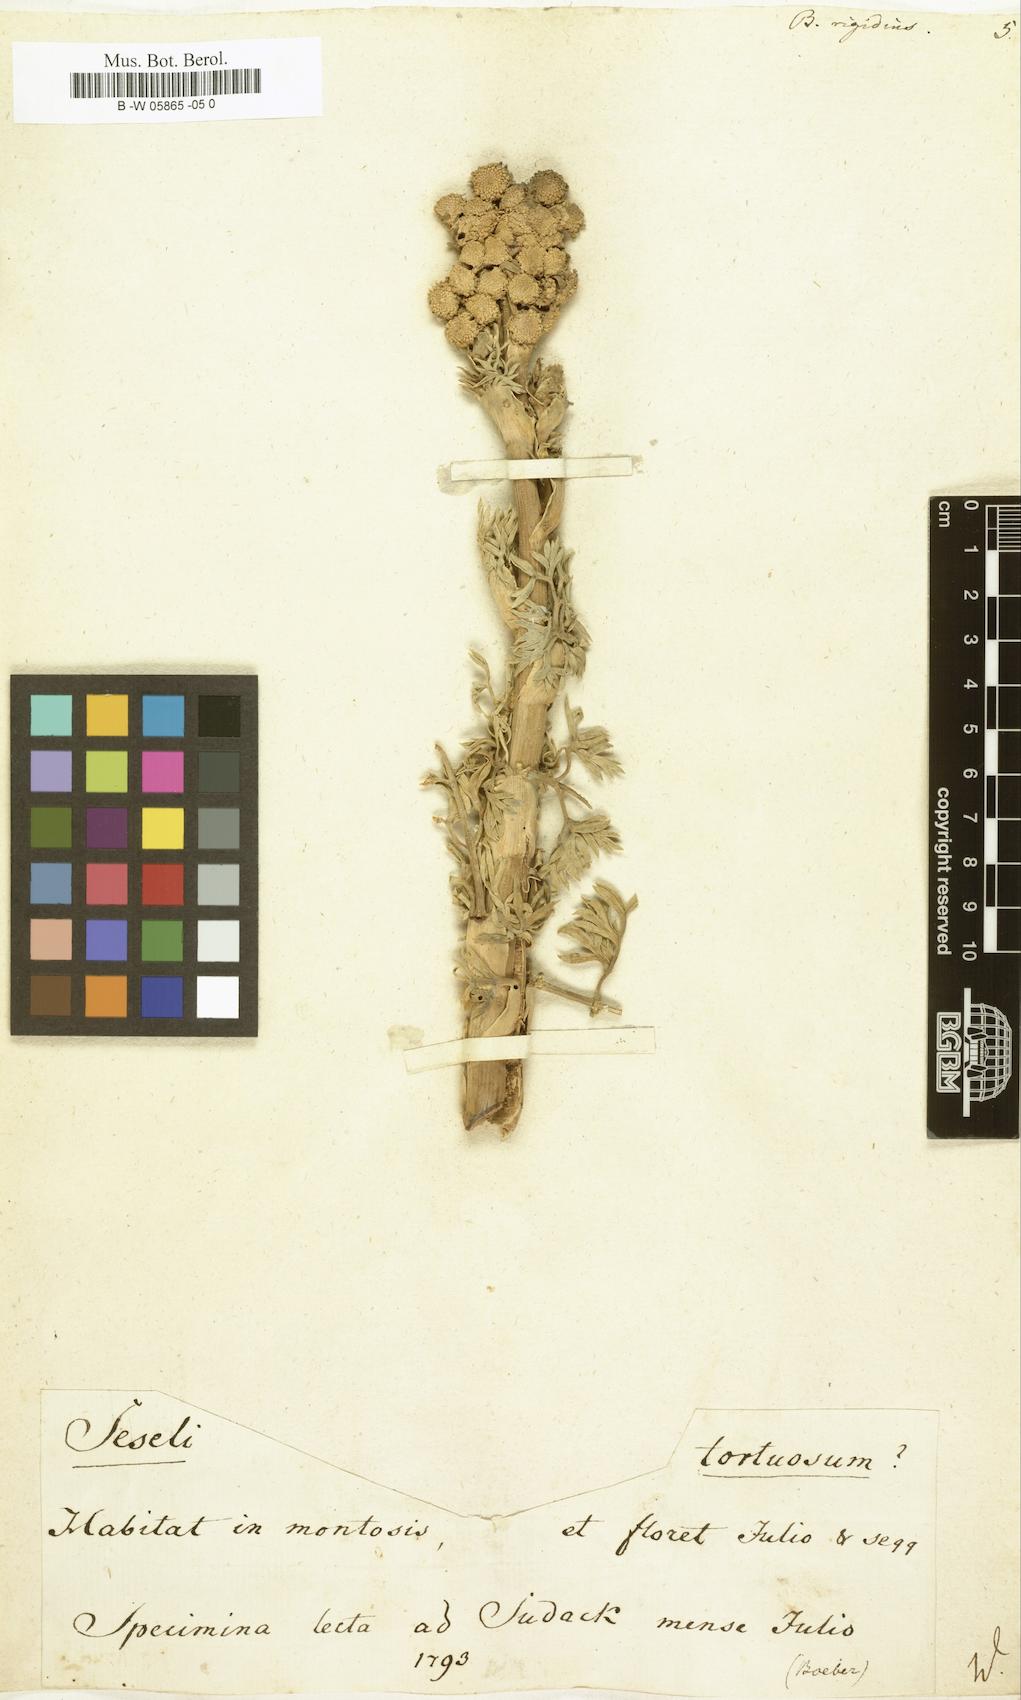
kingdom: Plantae
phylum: Tracheophyta
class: Magnoliopsida
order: Apiales
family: Apiaceae
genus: Ferula
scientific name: Ferula communis
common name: Giant fennel
